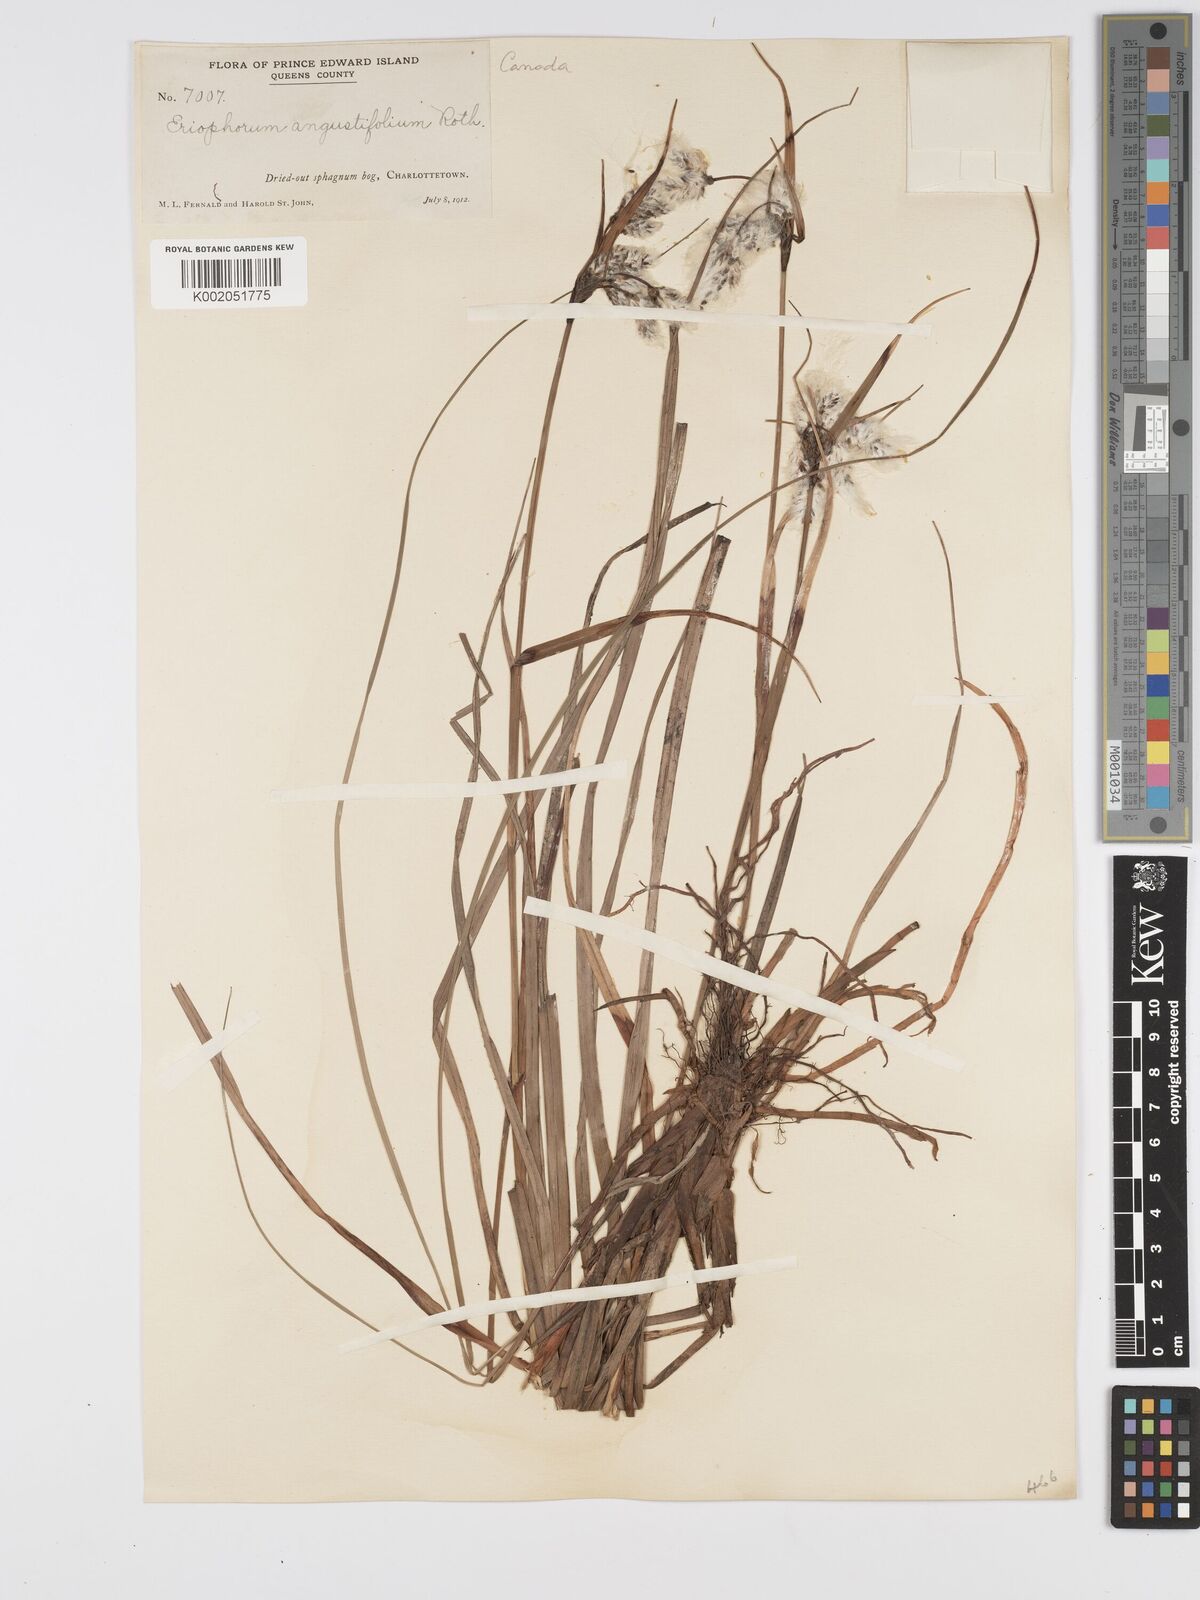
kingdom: Plantae
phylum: Tracheophyta
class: Liliopsida
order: Poales
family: Cyperaceae
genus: Eriophorum
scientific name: Eriophorum angustifolium
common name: Common cottongrass
